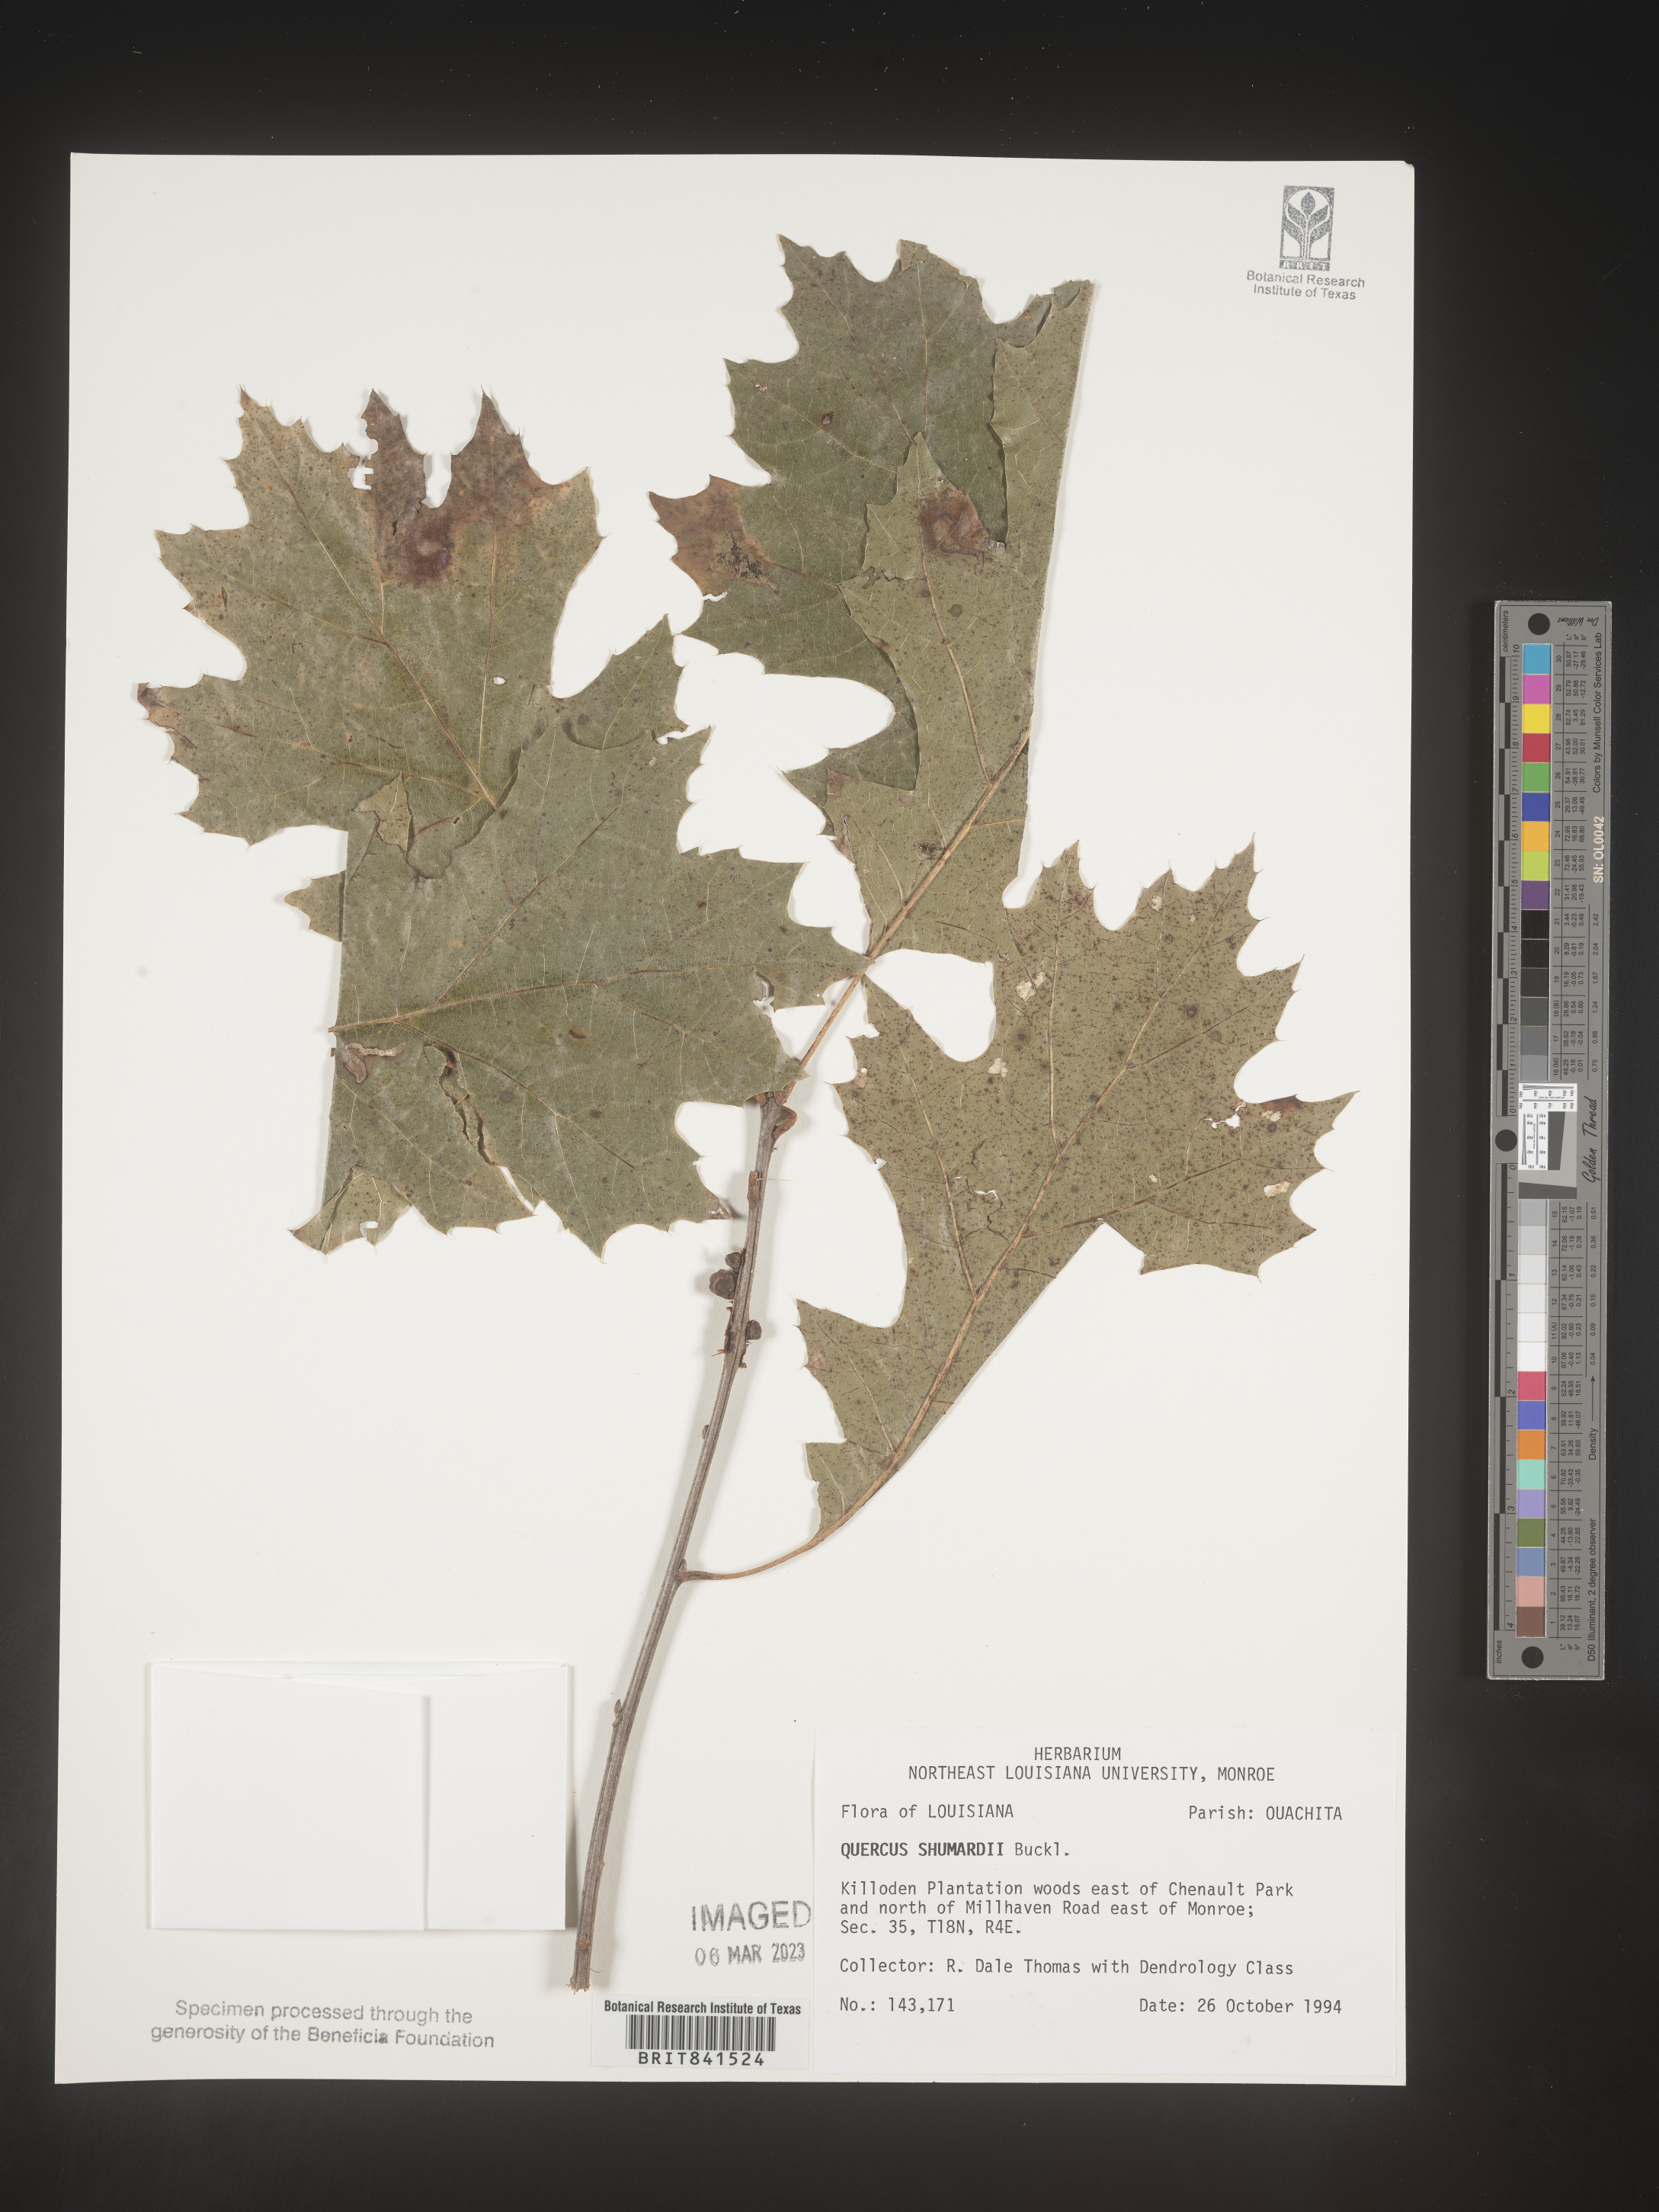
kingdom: Plantae
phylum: Tracheophyta
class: Magnoliopsida
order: Fagales
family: Fagaceae
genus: Quercus
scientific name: Quercus shumardii
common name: Shumard oak
